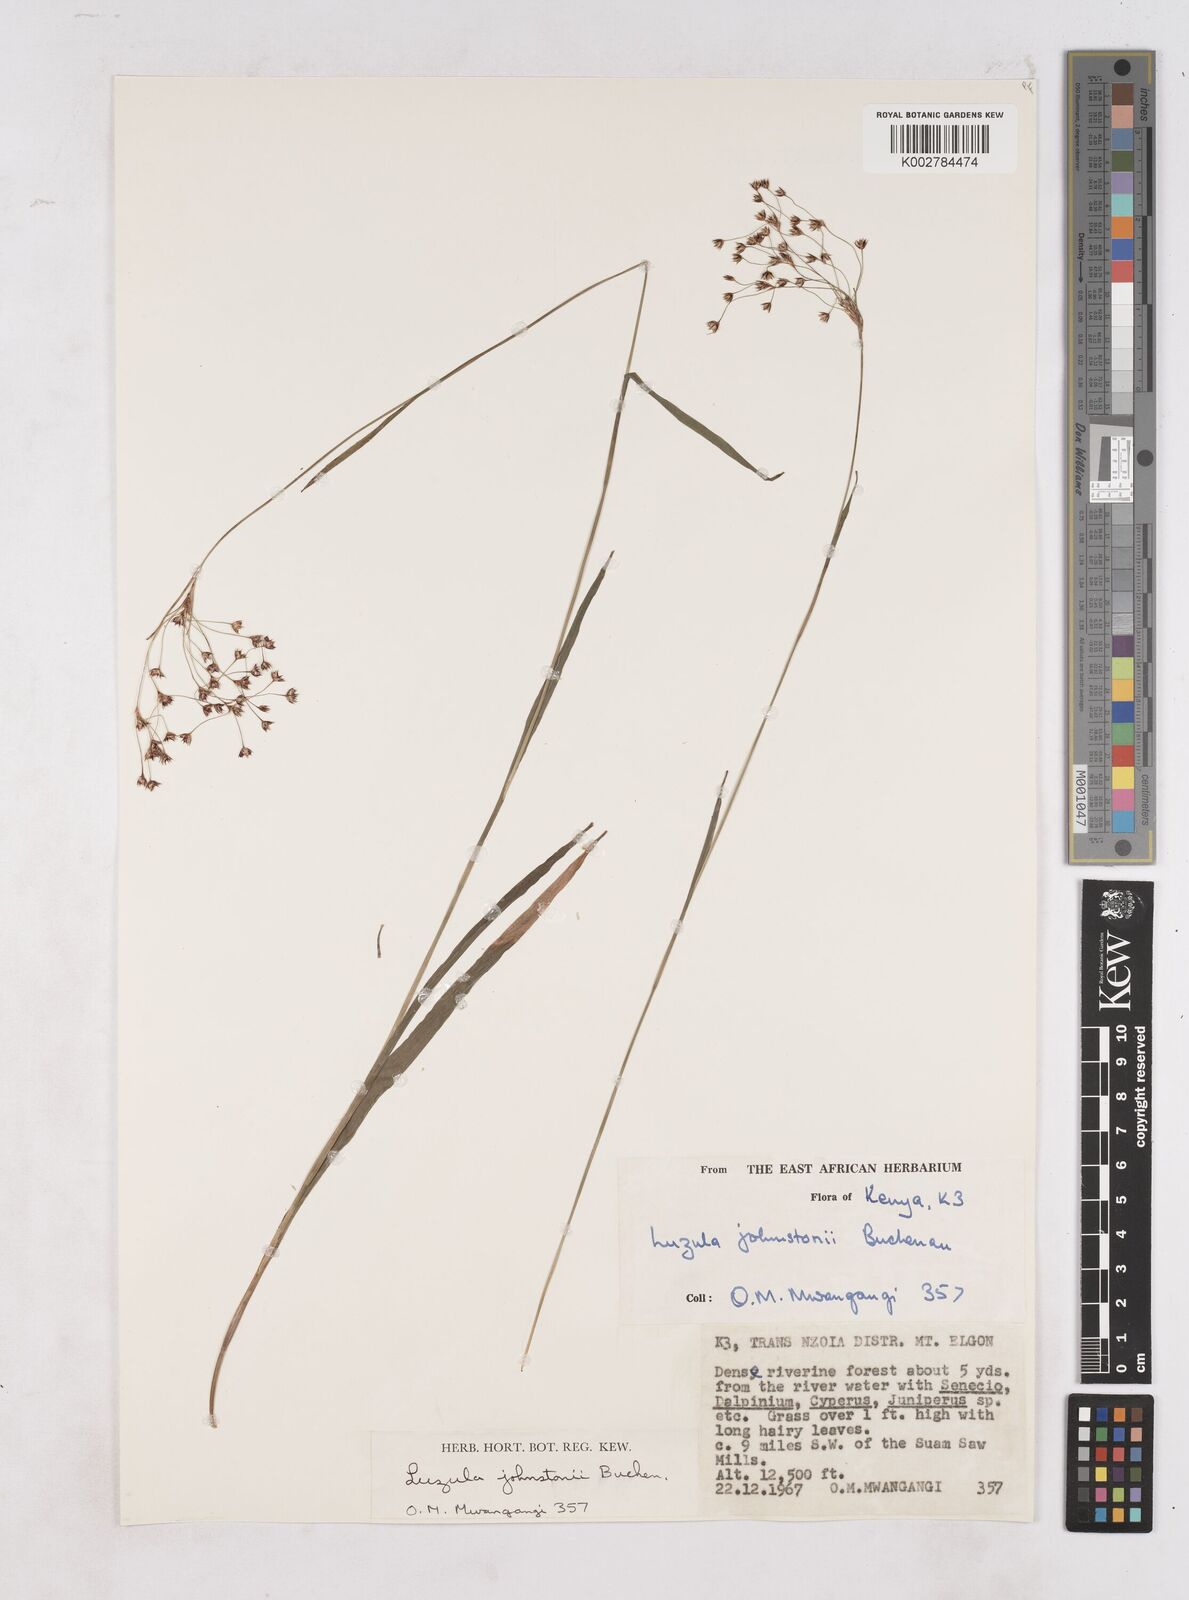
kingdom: Plantae
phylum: Tracheophyta
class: Liliopsida
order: Poales
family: Juncaceae
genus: Luzula
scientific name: Luzula johnstonii
